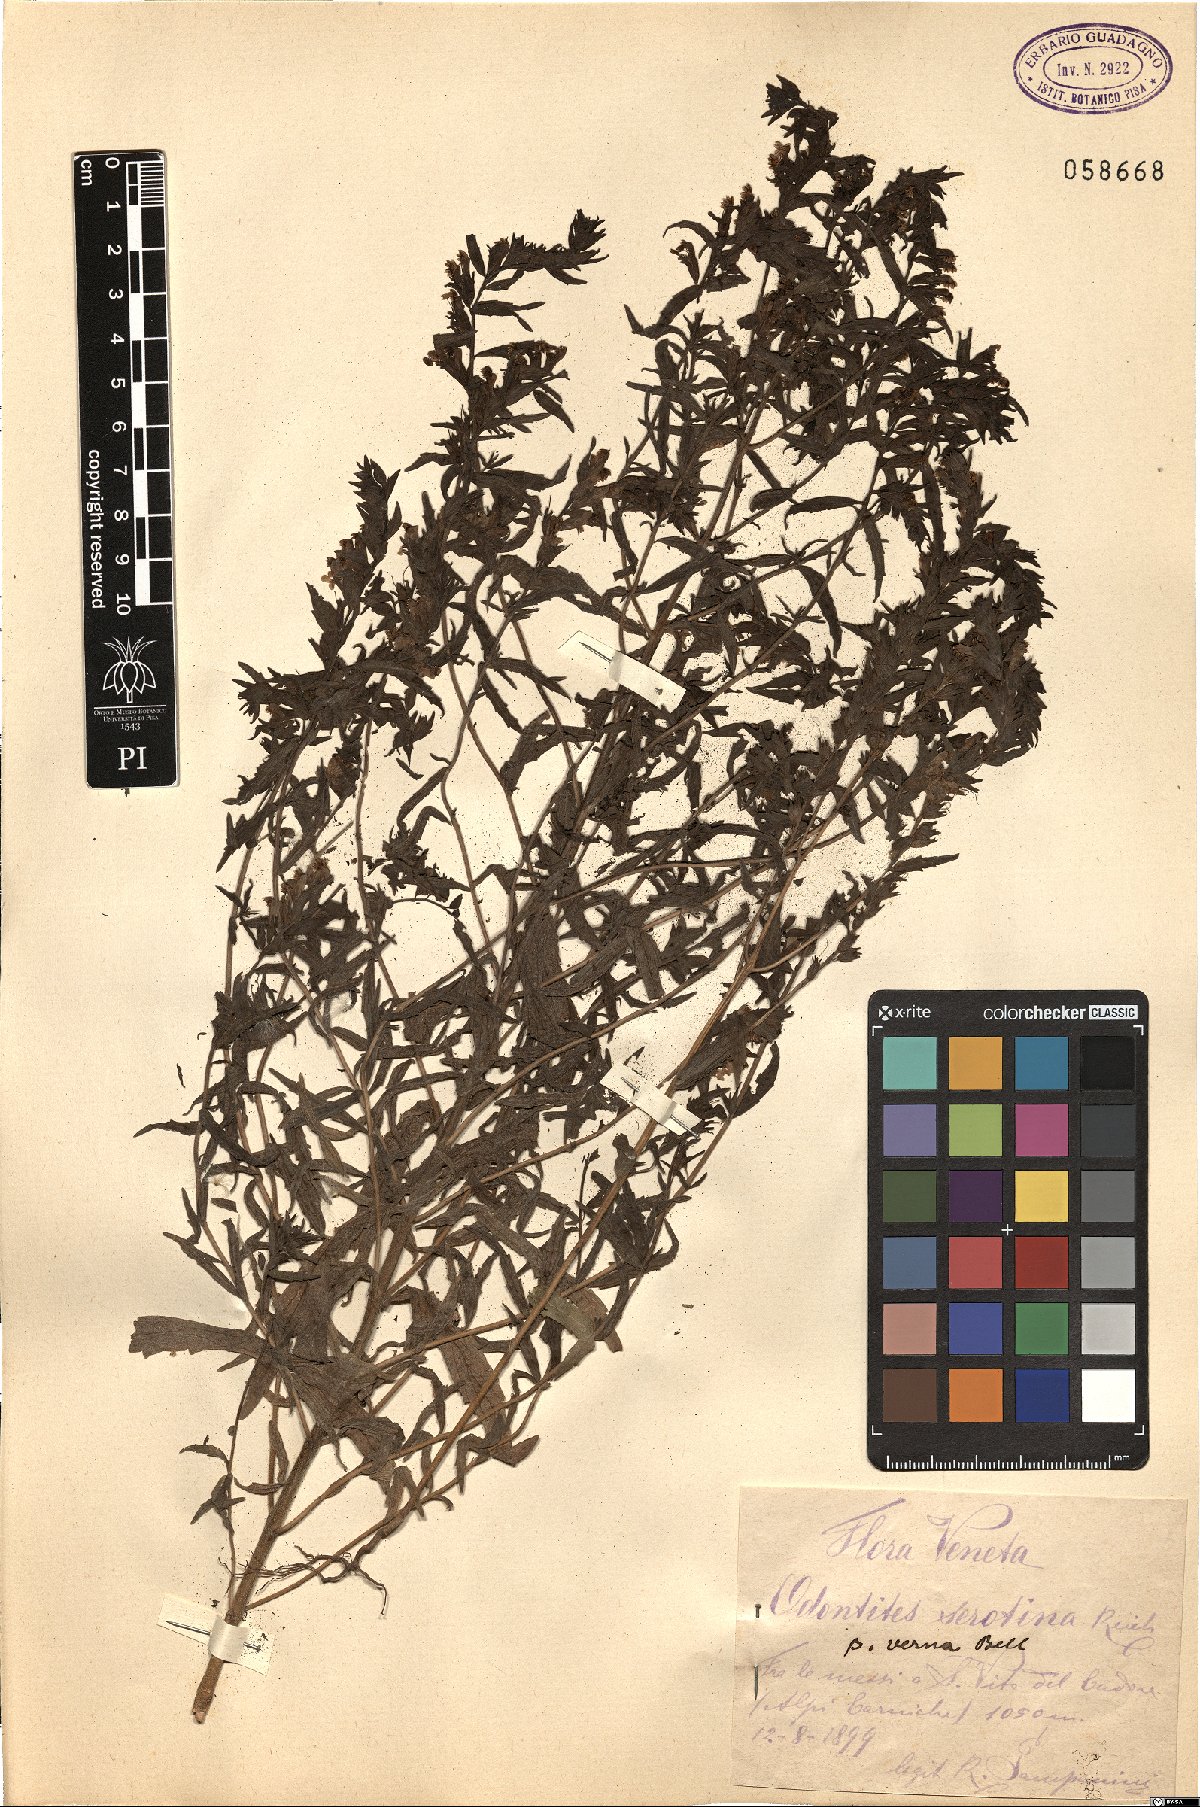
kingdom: Plantae
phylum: Tracheophyta
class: Magnoliopsida
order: Lamiales
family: Orobanchaceae
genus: Odontites
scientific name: Odontites vulgaris
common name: Broomrape
